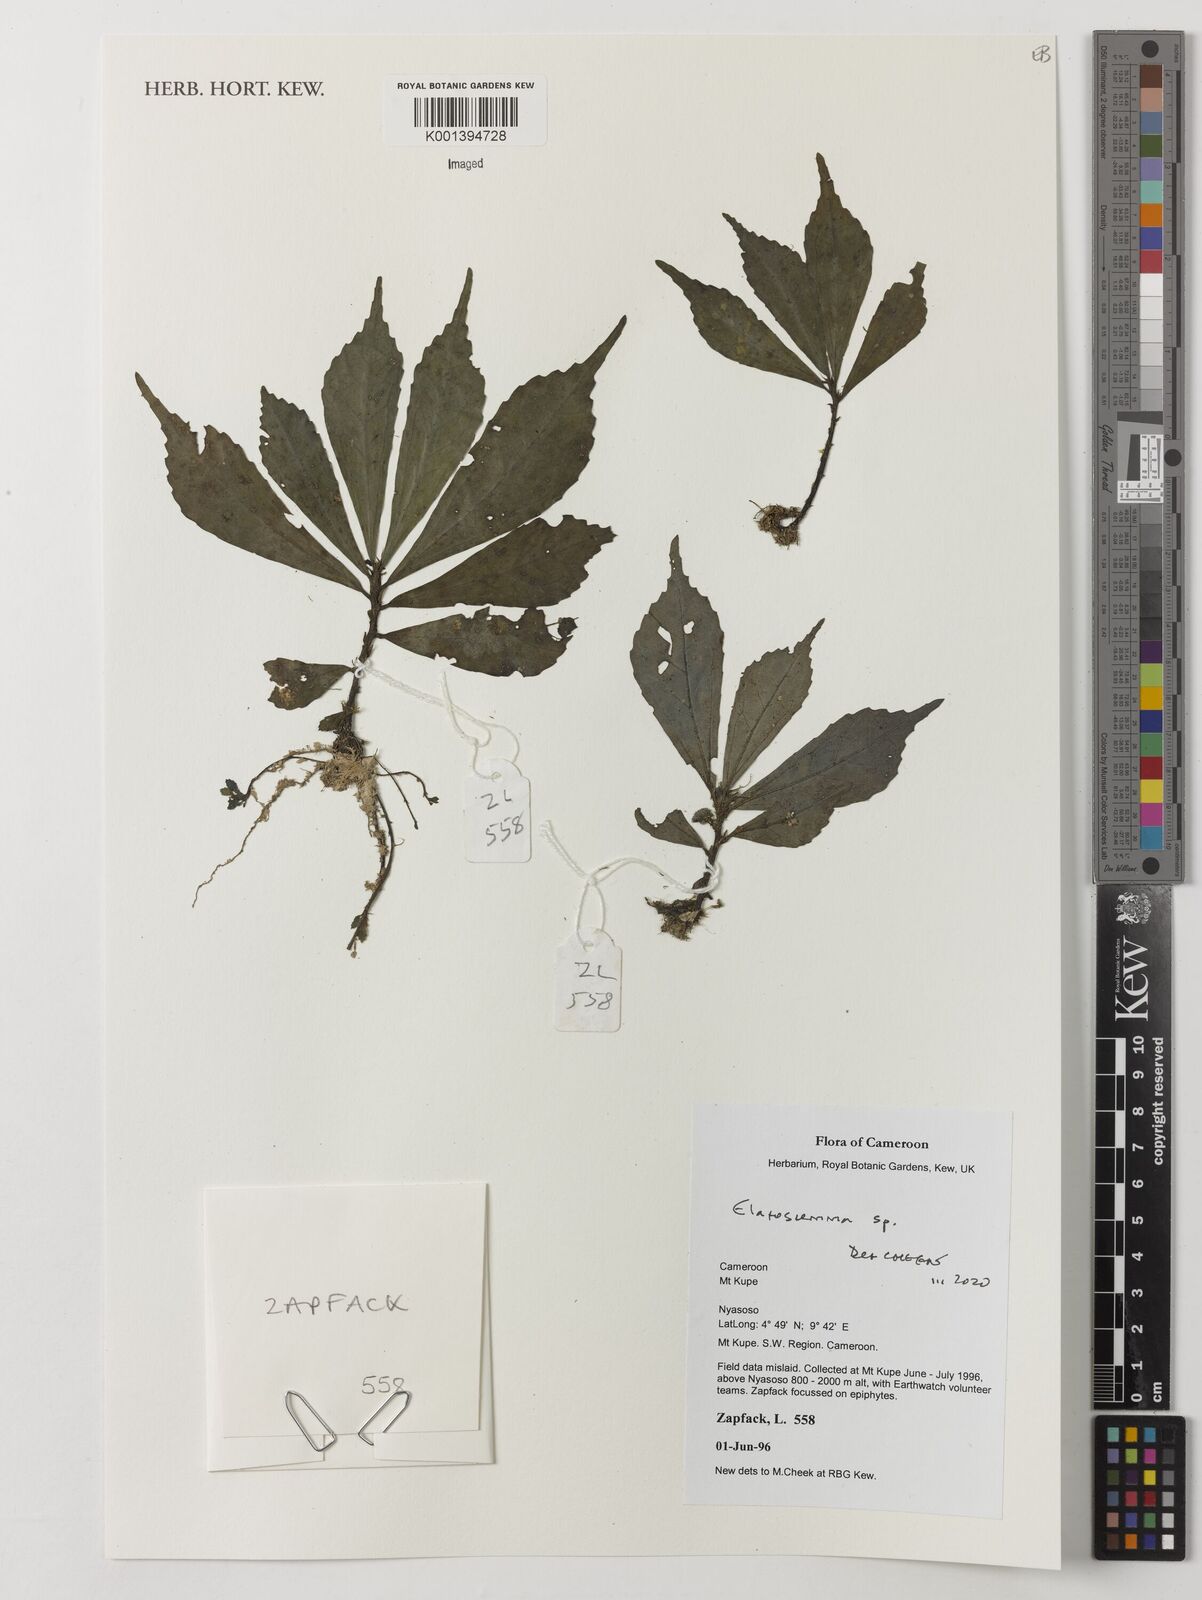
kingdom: Plantae
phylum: Tracheophyta
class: Magnoliopsida
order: Rosales
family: Urticaceae
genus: Elatostema
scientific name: Elatostema
